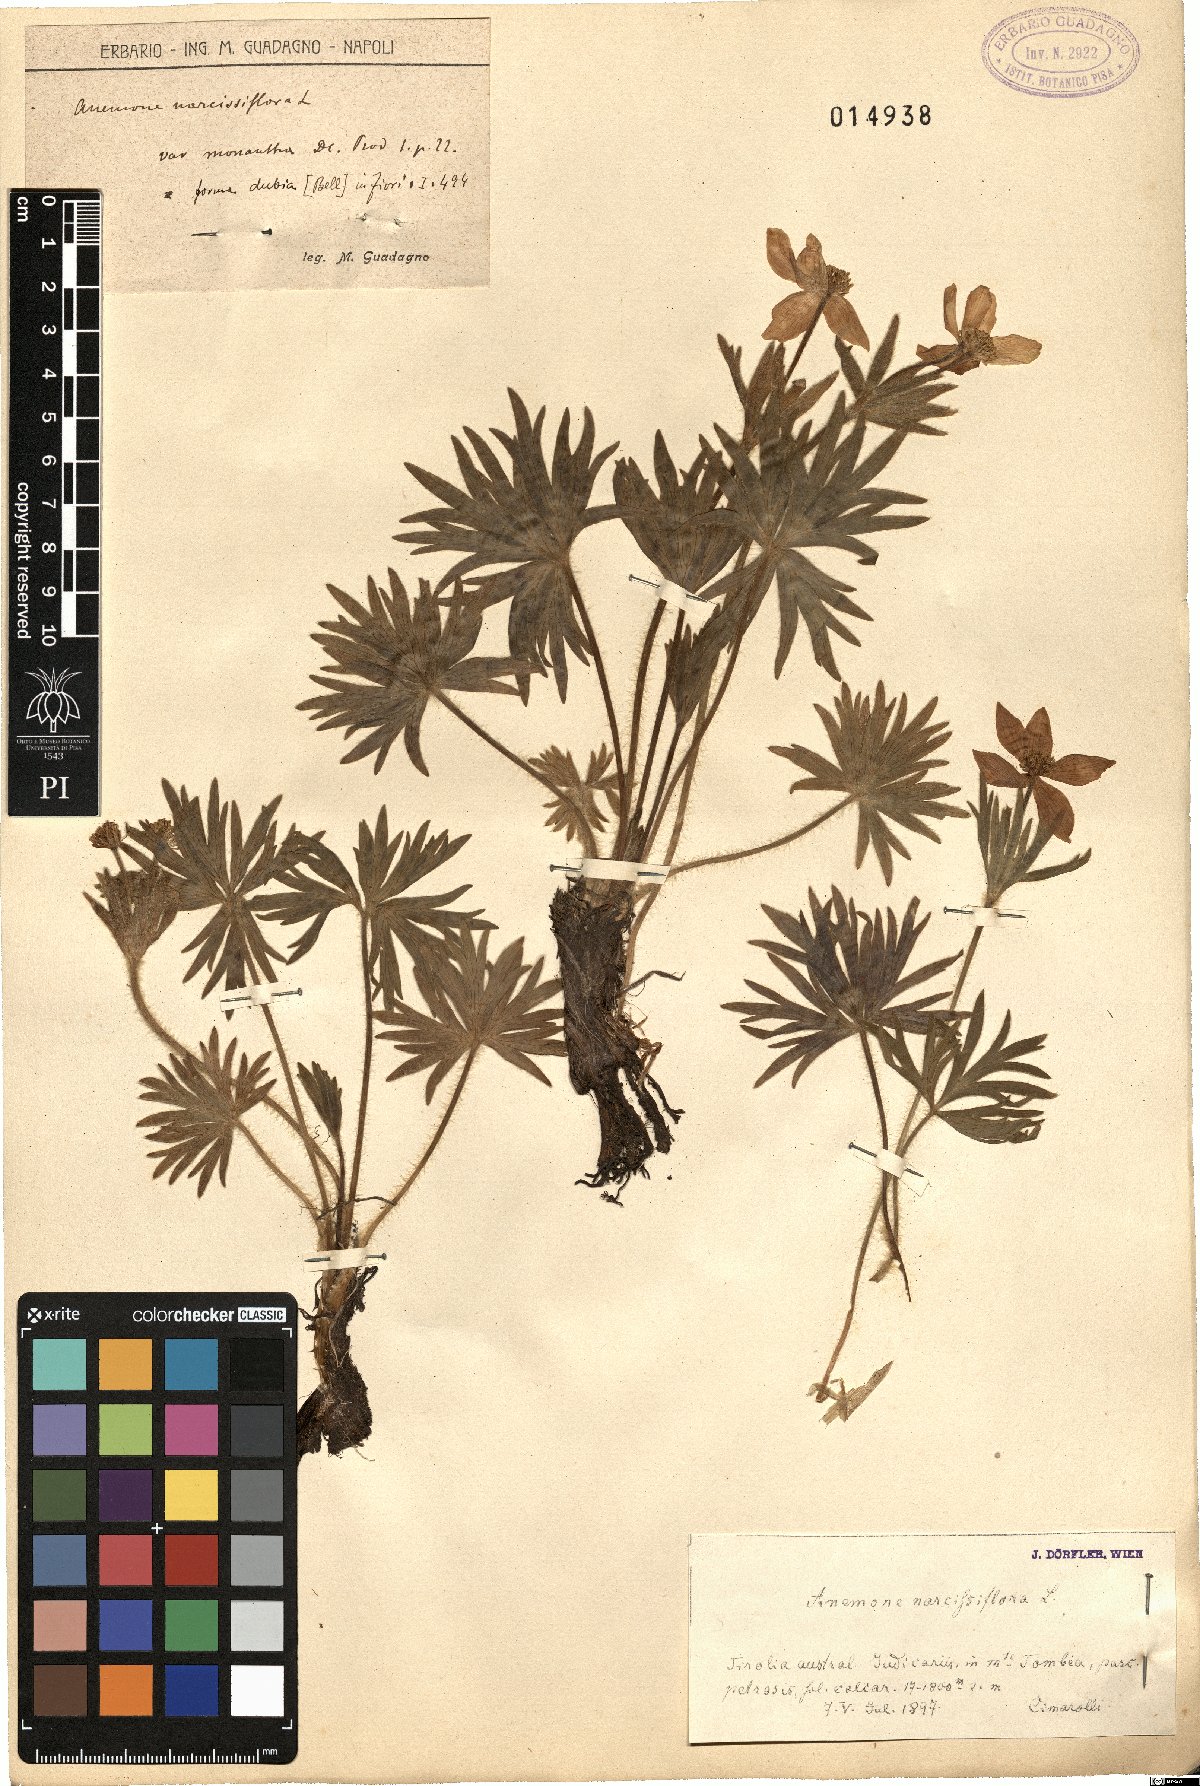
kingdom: Plantae
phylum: Tracheophyta
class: Magnoliopsida
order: Ranunculales
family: Ranunculaceae
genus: Anemonastrum
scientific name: Anemonastrum narcissiflorum
